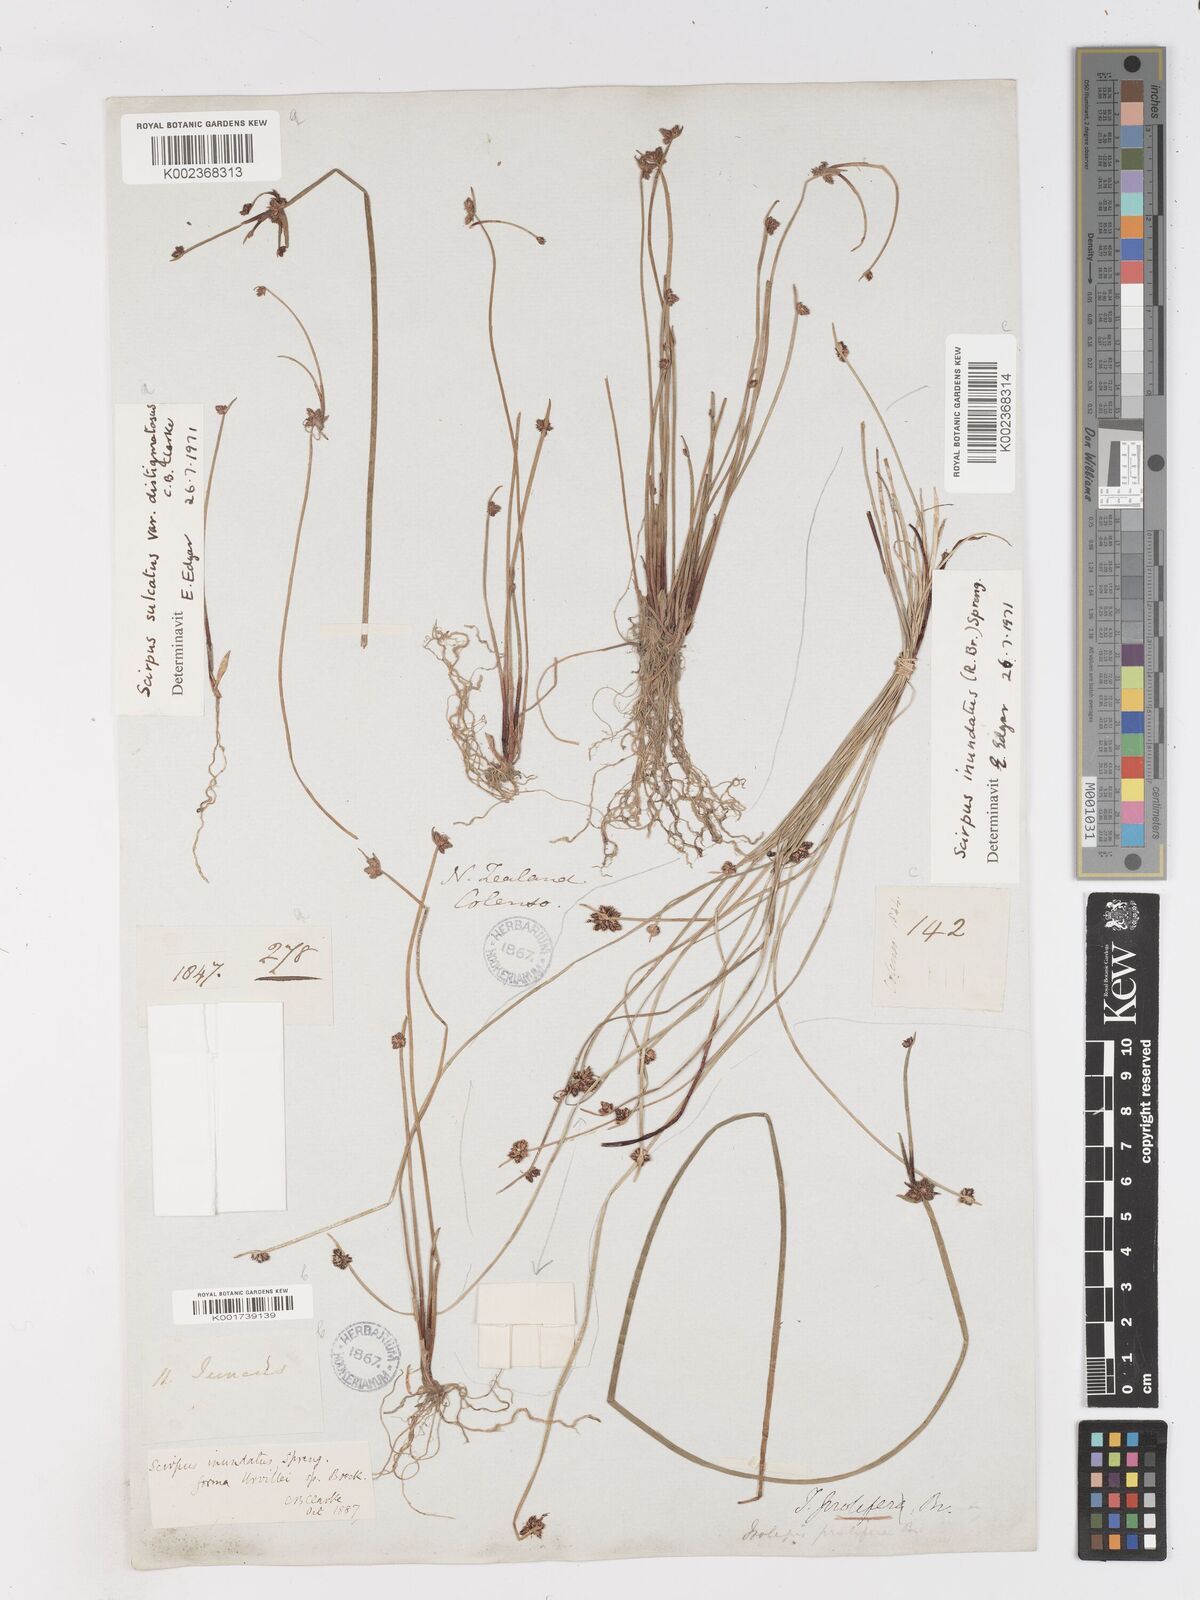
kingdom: Plantae
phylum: Tracheophyta
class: Liliopsida
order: Poales
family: Cyperaceae
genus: Isolepis
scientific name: Isolepis sulcata
